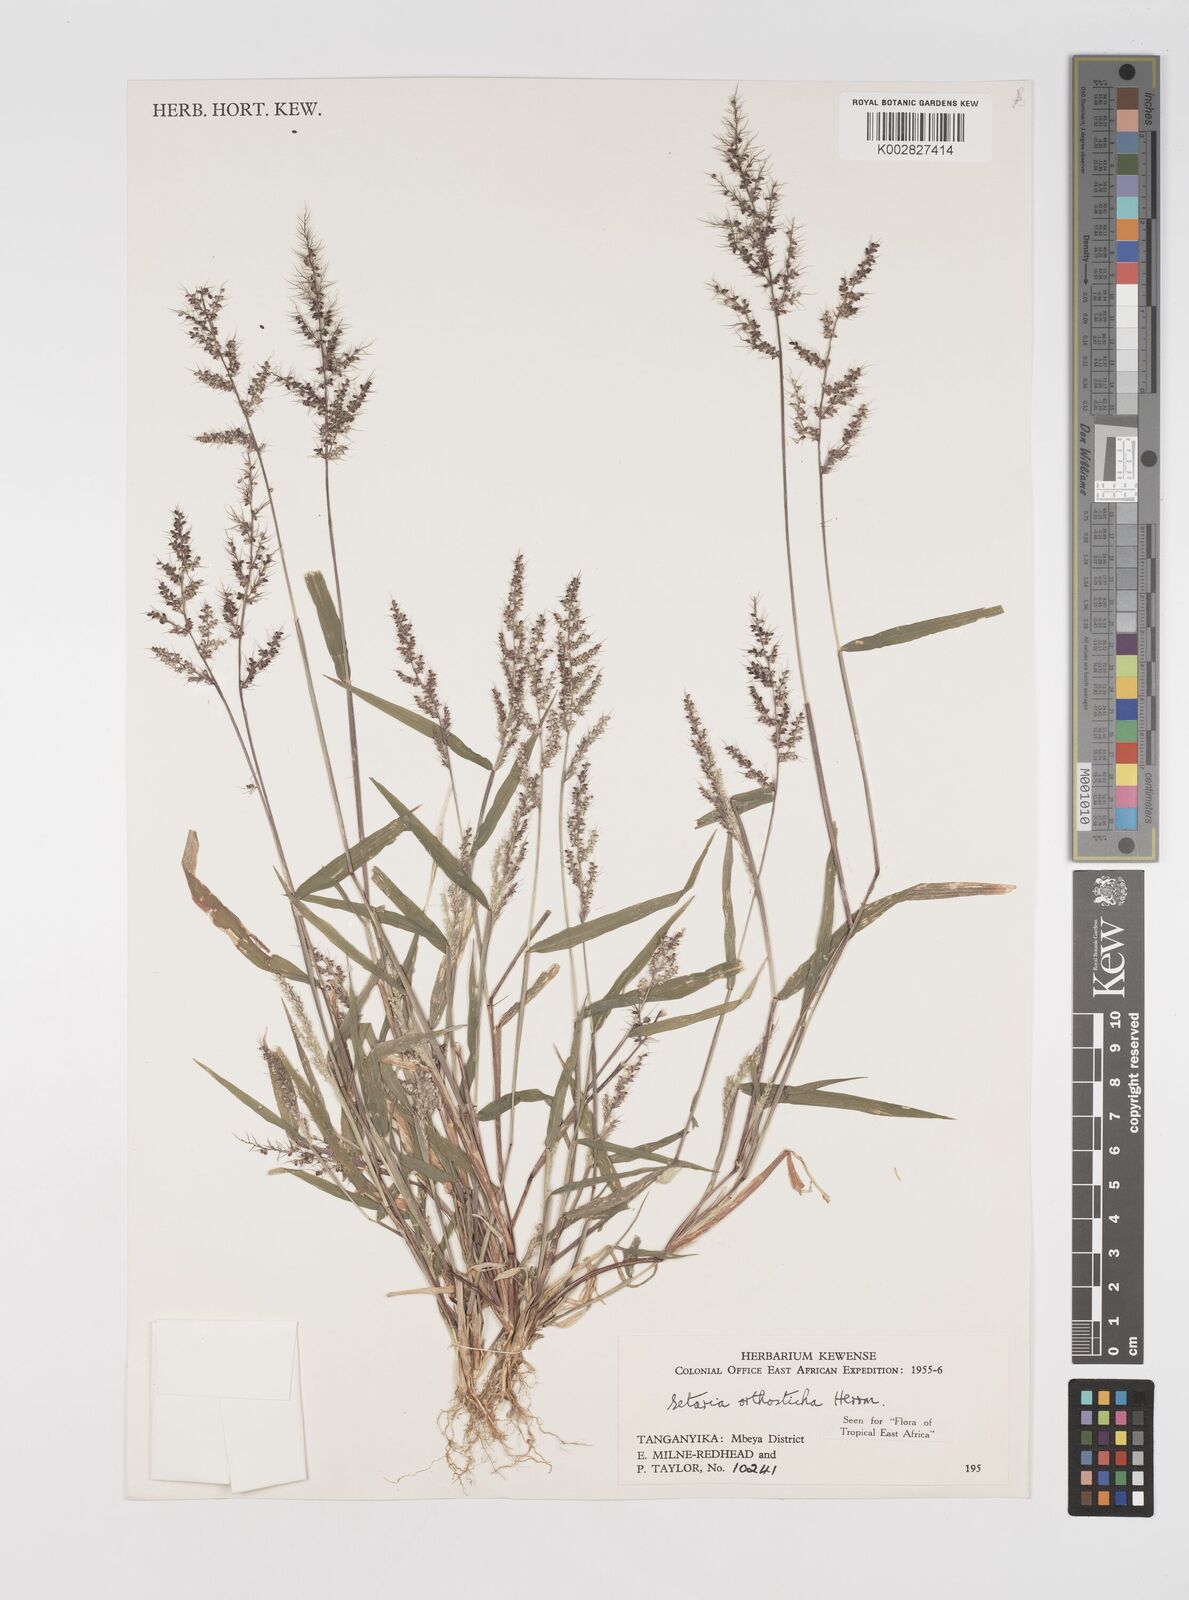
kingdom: Plantae
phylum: Tracheophyta
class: Liliopsida
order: Poales
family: Poaceae
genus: Setaria
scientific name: Setaria orthosticha
